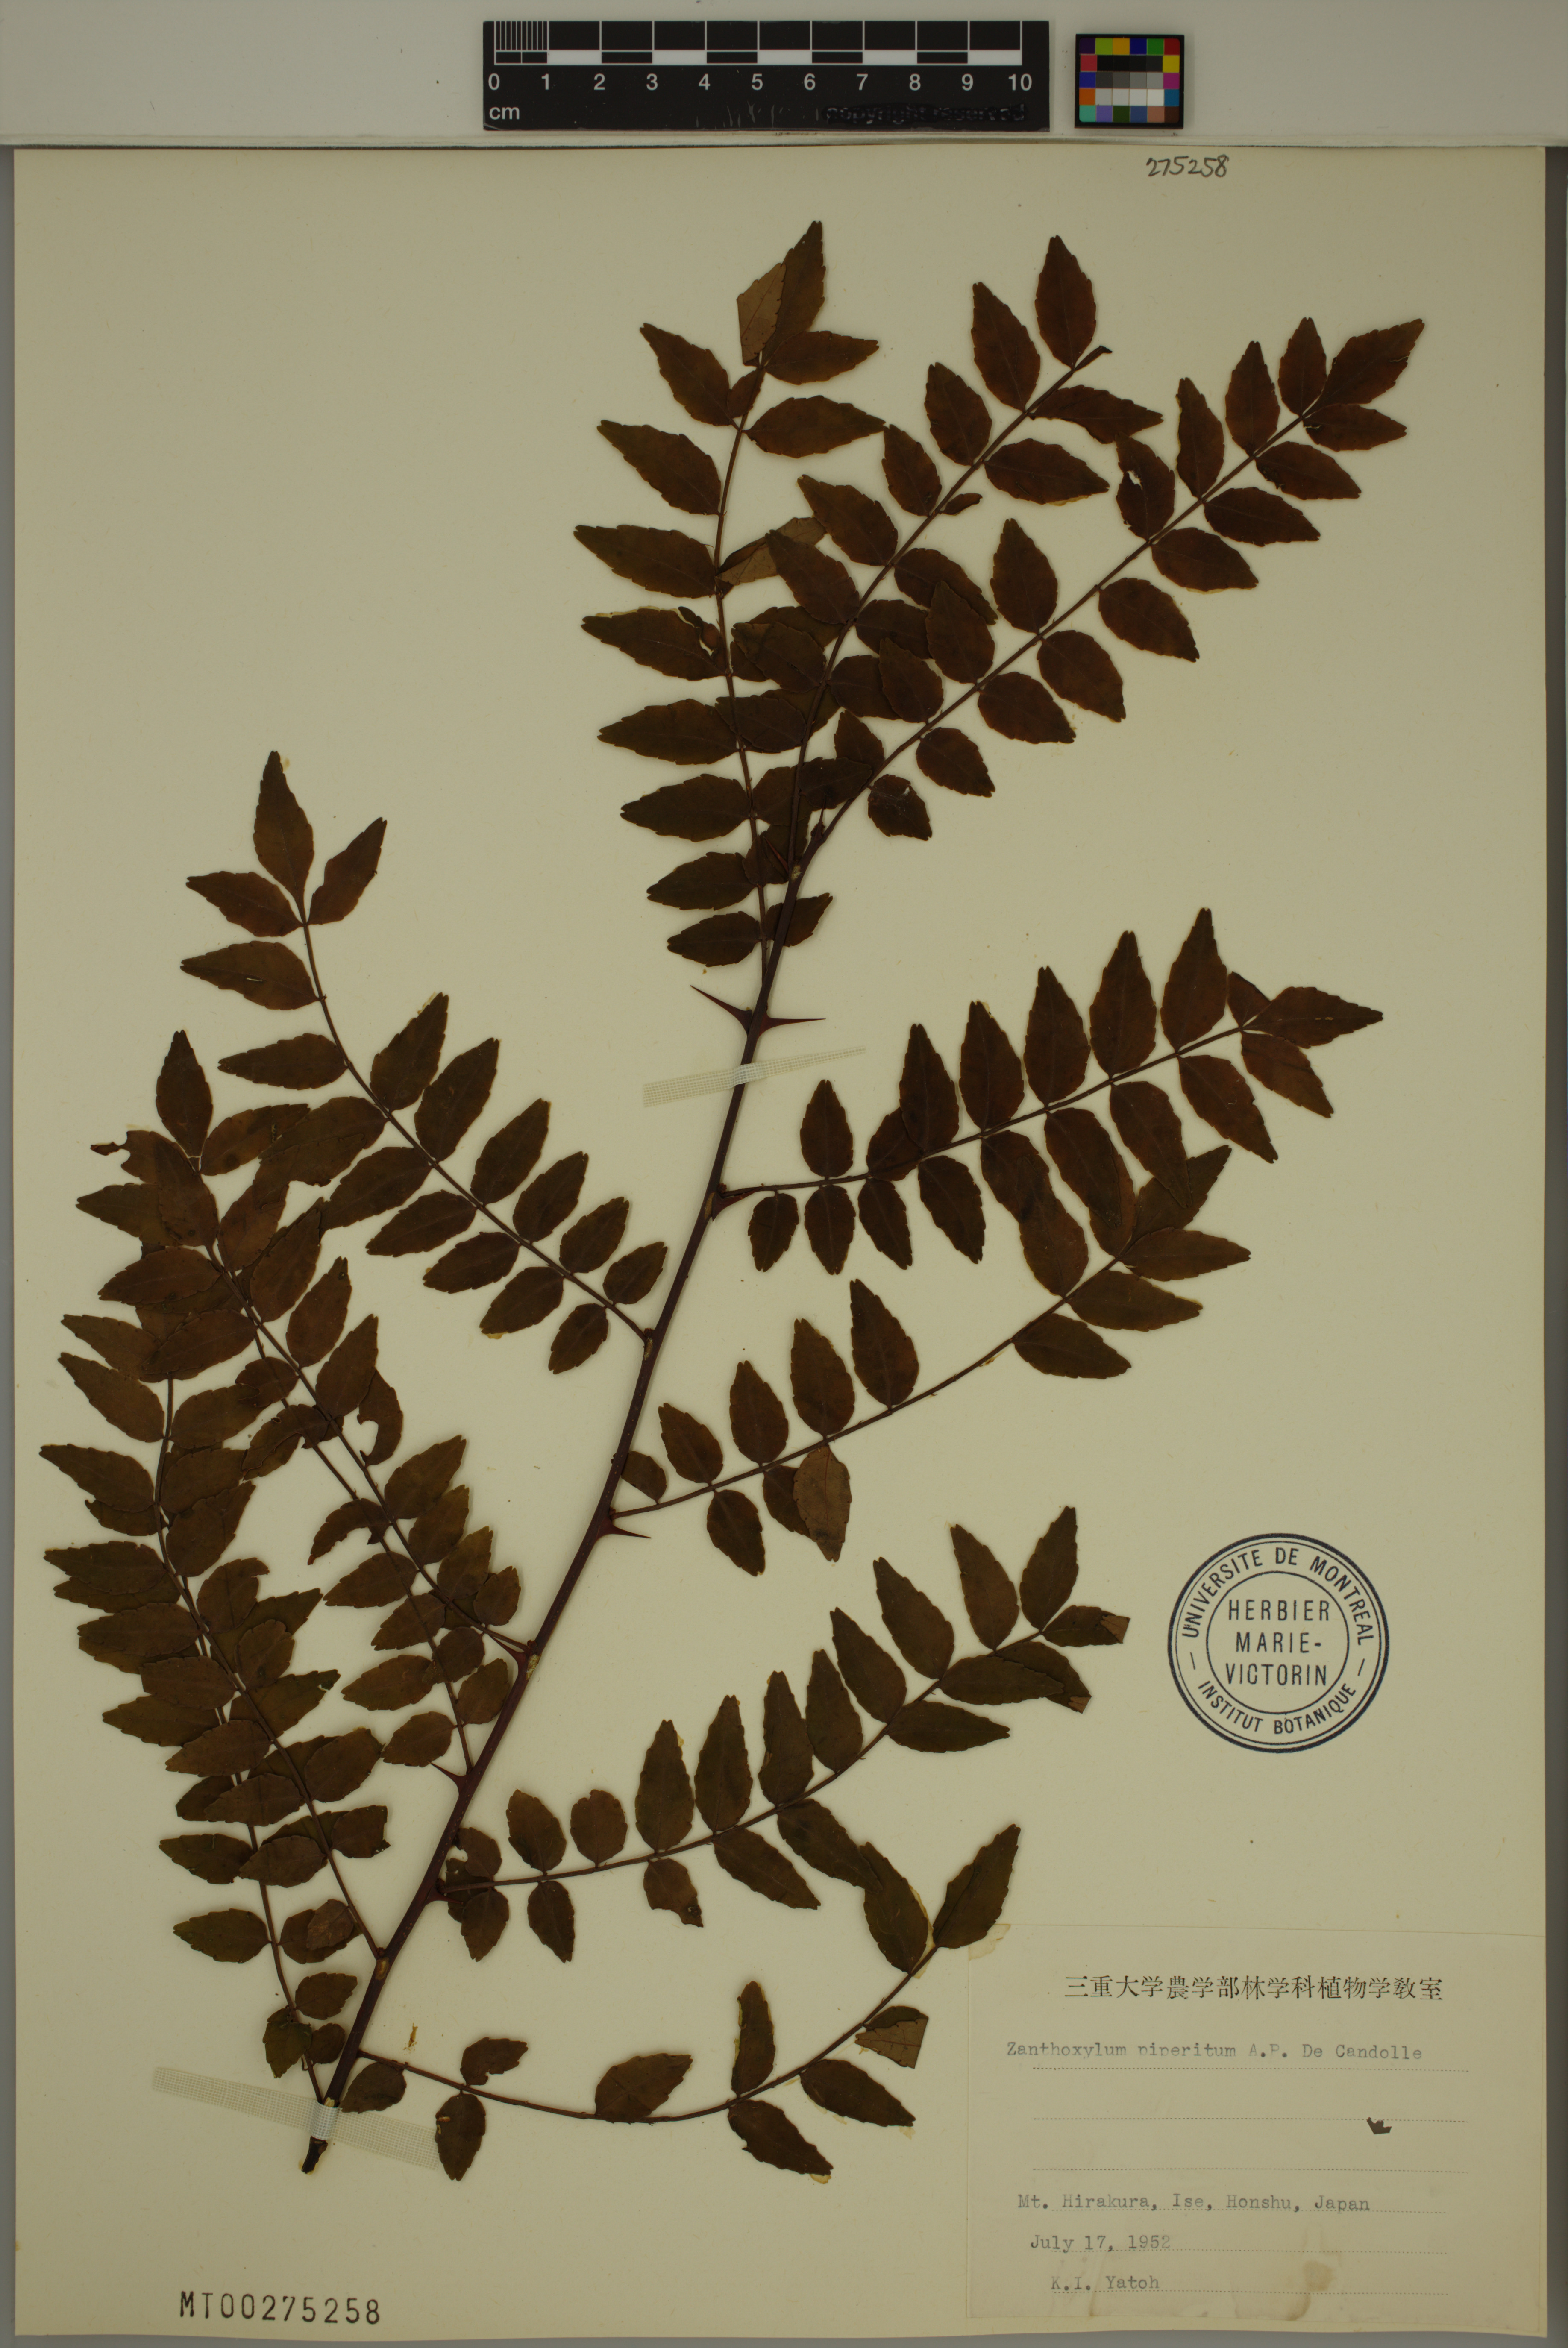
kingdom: Plantae
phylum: Tracheophyta
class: Magnoliopsida
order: Sapindales
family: Rutaceae
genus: Zanthoxylum
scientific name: Zanthoxylum piperitum
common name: Japanese-pepper
